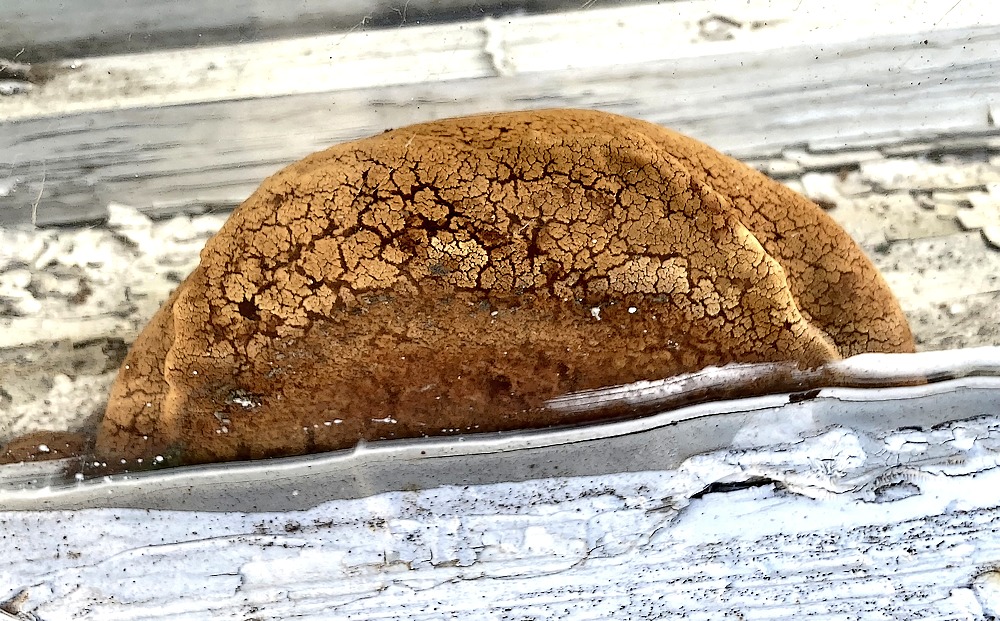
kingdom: Fungi
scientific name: Fungi
